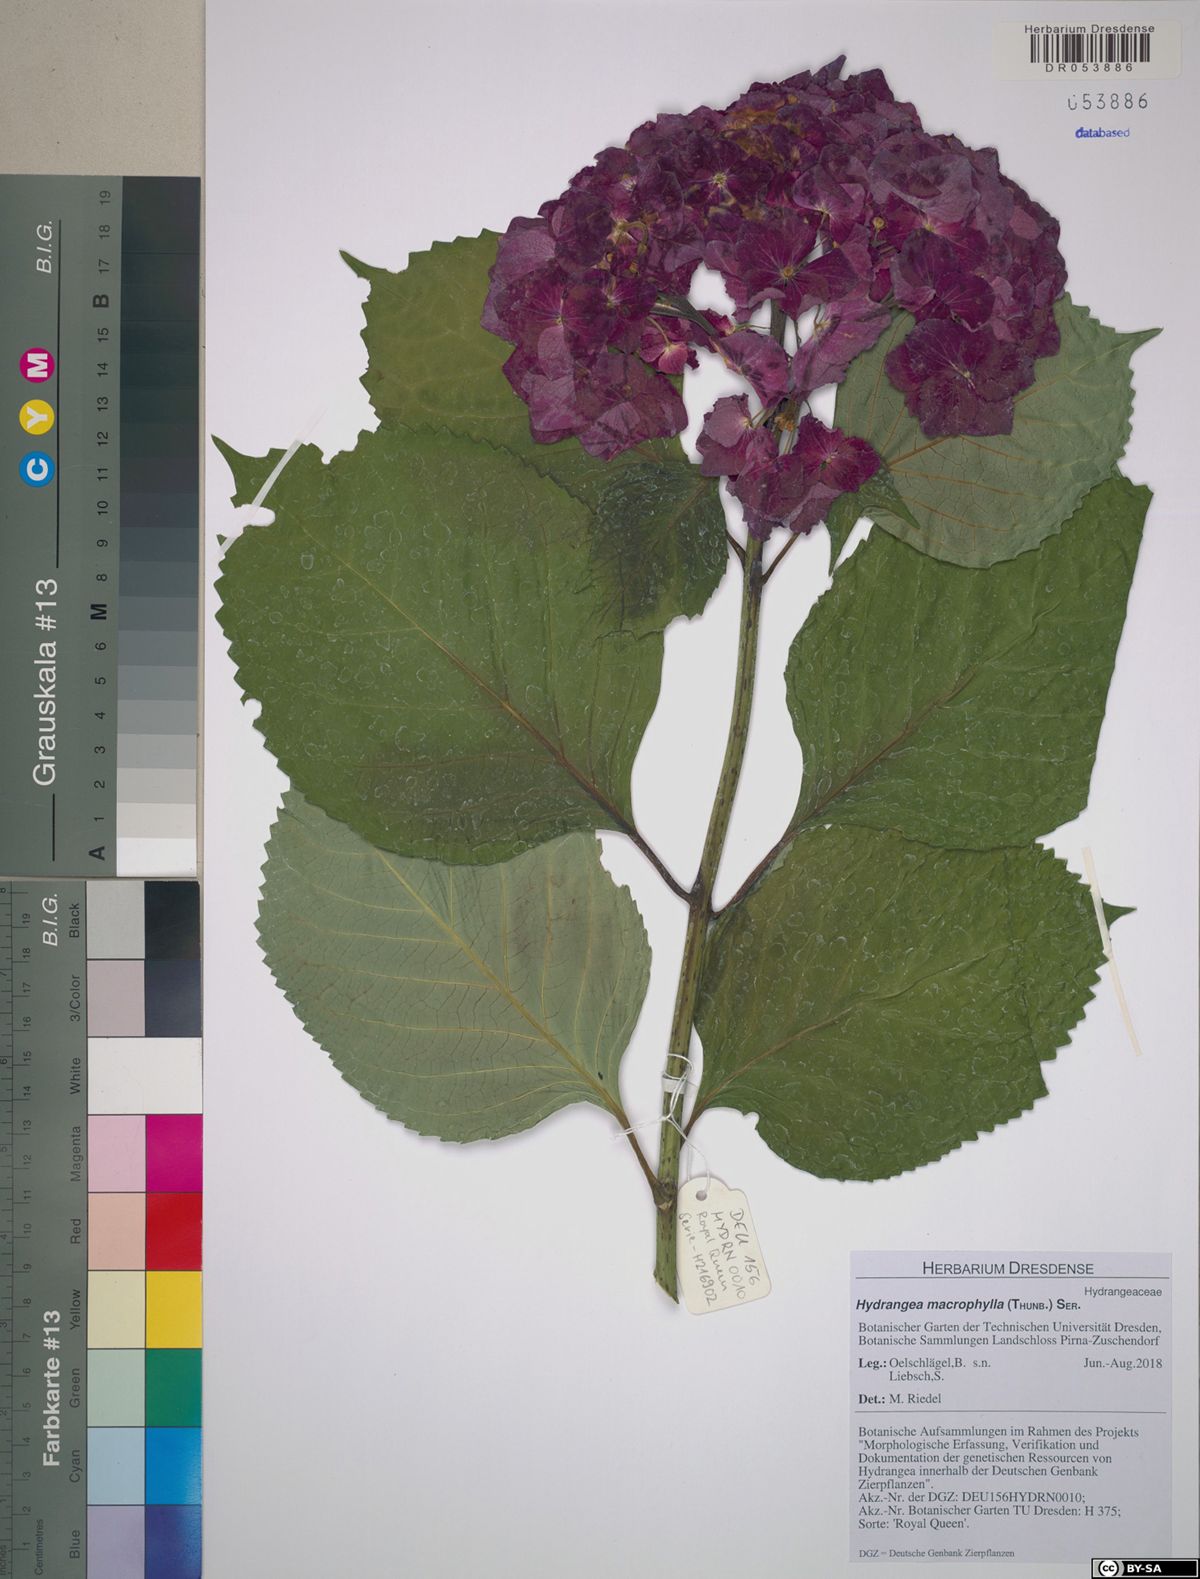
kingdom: Plantae
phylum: Tracheophyta
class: Magnoliopsida
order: Cornales
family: Hydrangeaceae
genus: Hydrangea
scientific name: Hydrangea macrophylla
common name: Hydrangea
